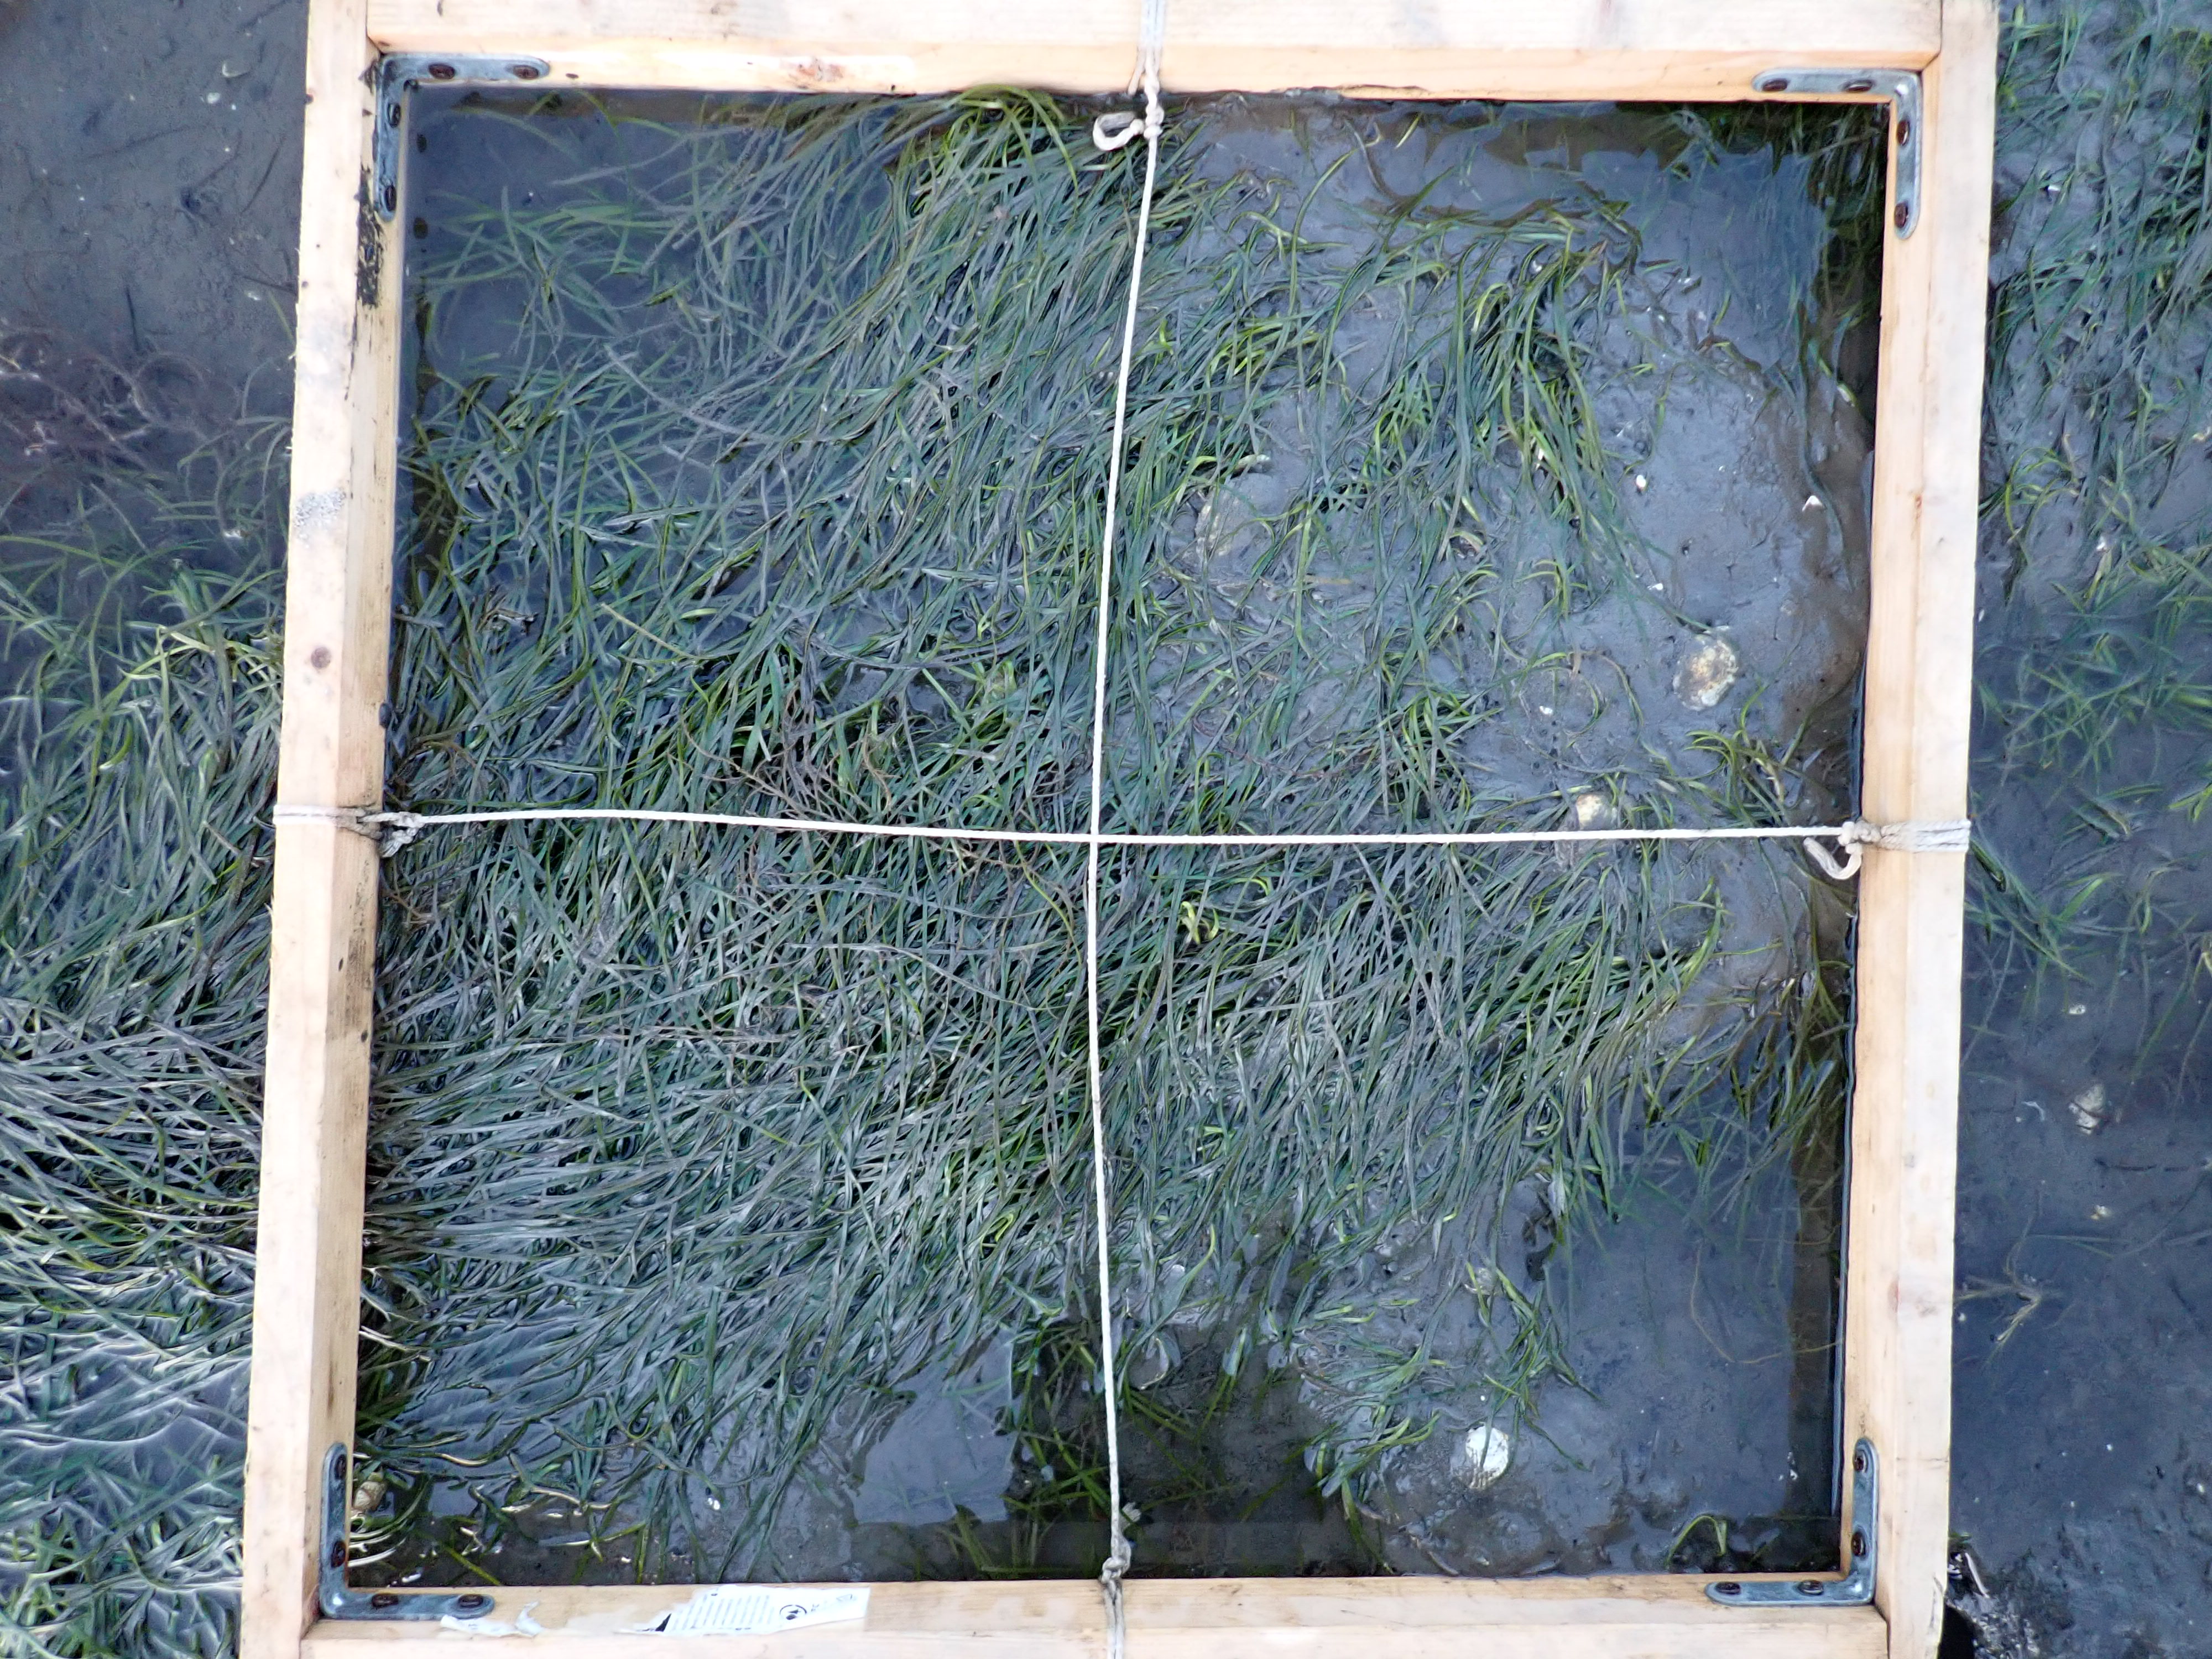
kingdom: Plantae
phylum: Tracheophyta
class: Liliopsida
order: Alismatales
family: Zosteraceae
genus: Zostera
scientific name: Zostera noltii
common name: Dwarf eelgrass
